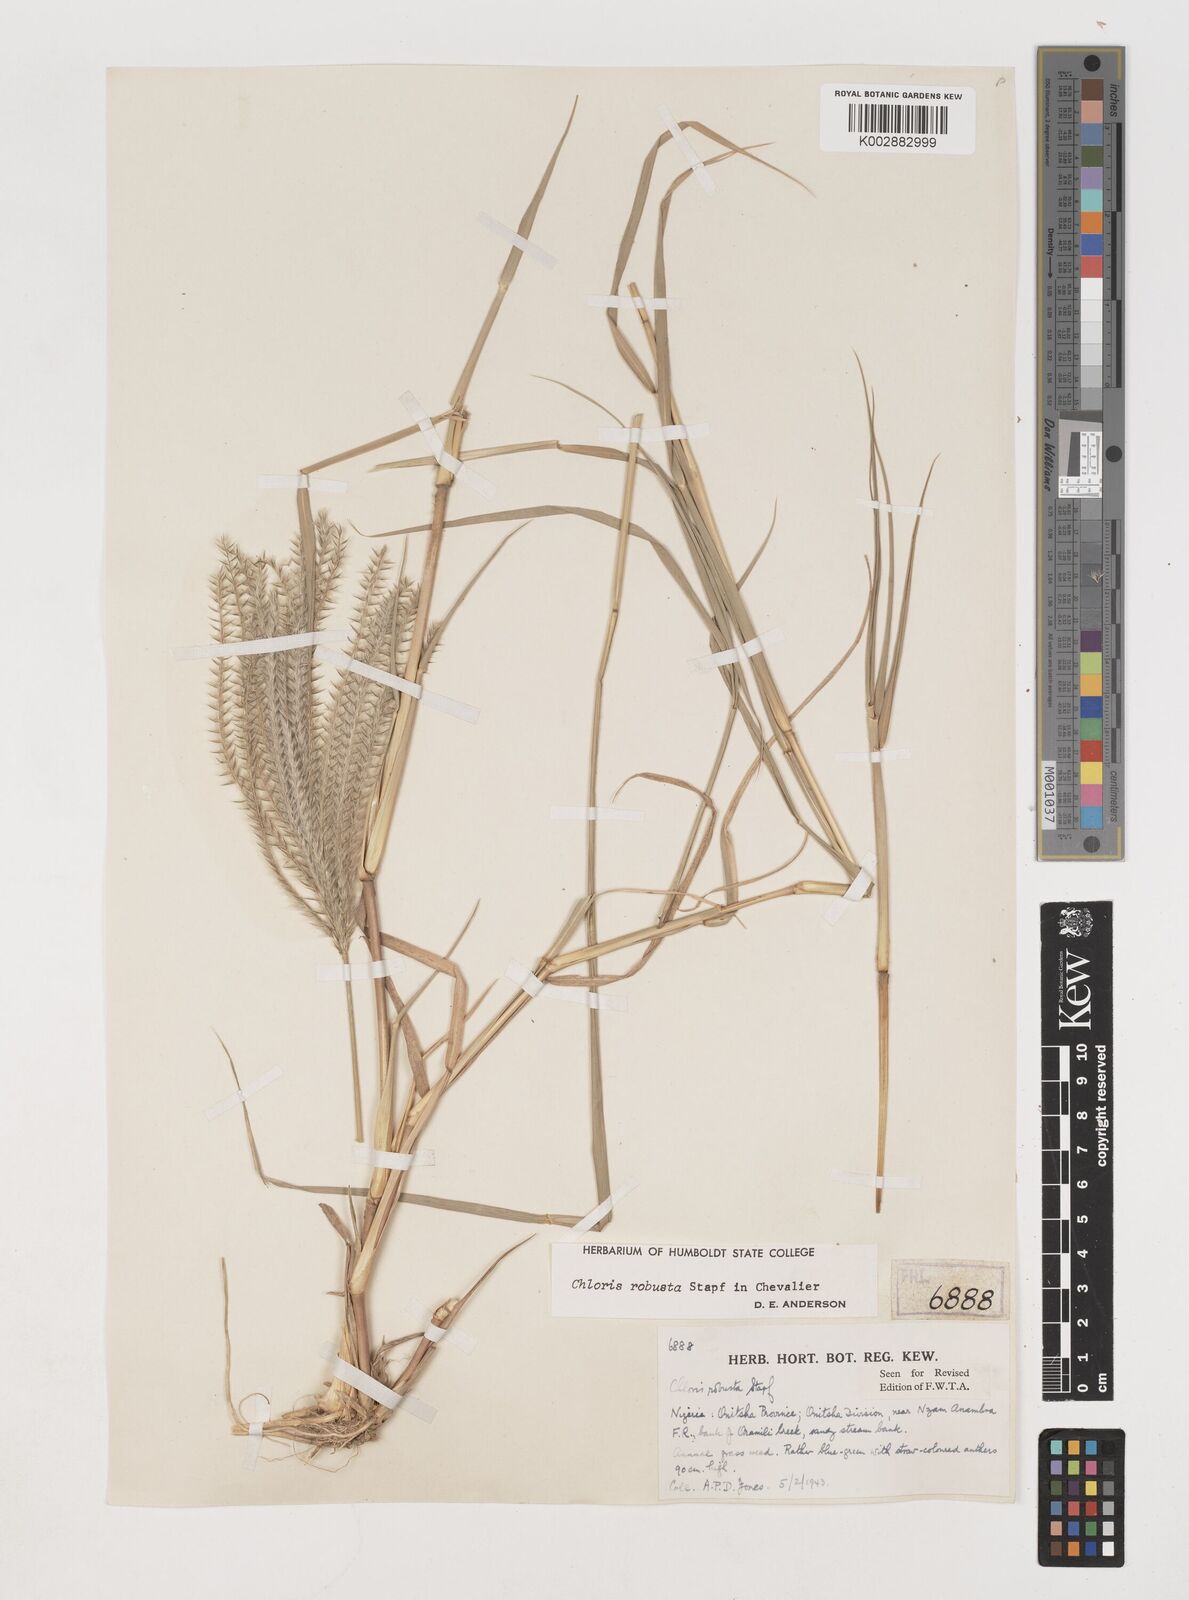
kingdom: Plantae
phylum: Tracheophyta
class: Liliopsida
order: Poales
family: Poaceae
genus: Chloris
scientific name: Chloris robusta
